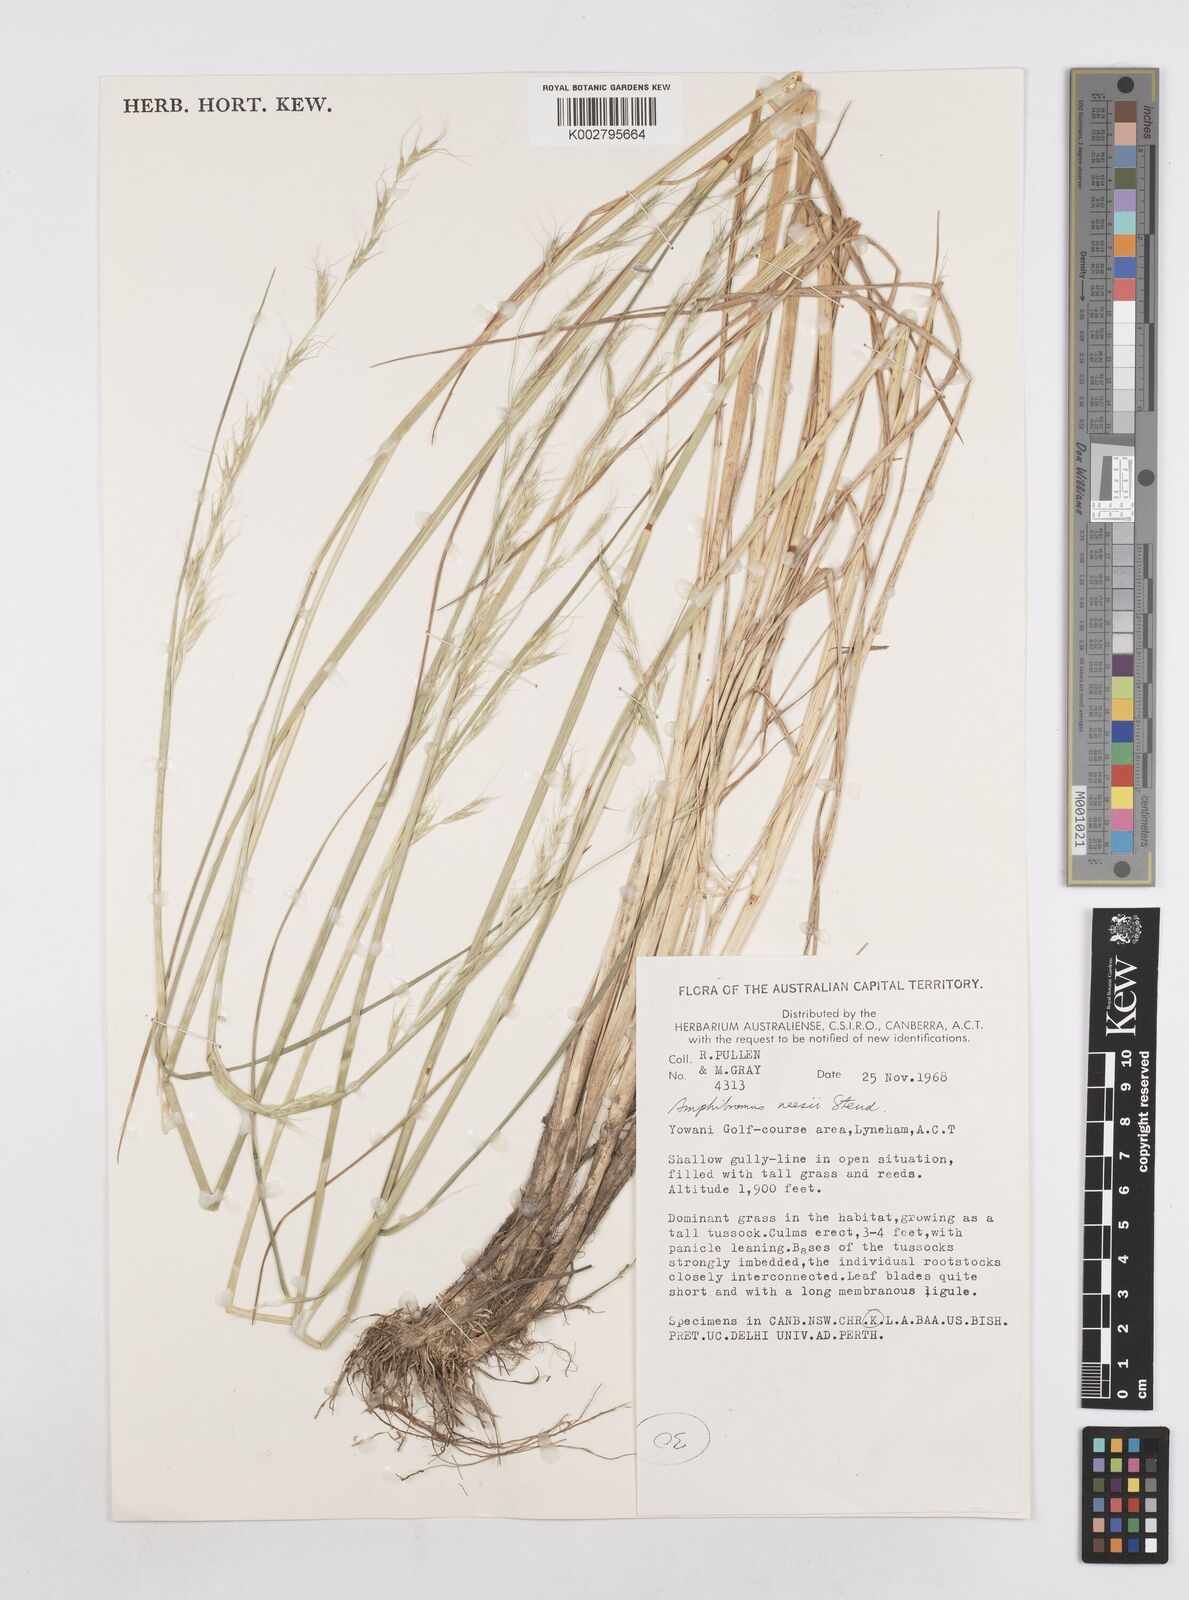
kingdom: Plantae
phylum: Tracheophyta
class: Liliopsida
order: Poales
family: Poaceae
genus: Amphibromus
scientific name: Amphibromus neesii
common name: Australian wallaby grass
